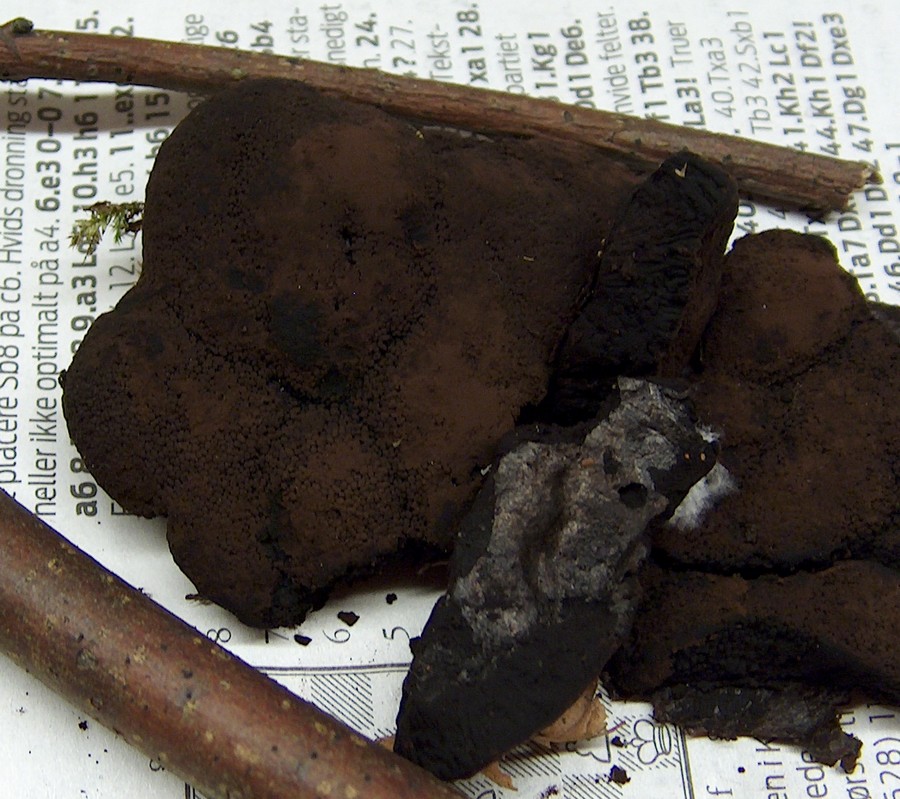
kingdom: Protozoa
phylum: Mycetozoa
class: Myxomycetes
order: Stemonitidales
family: Stemonitidaceae
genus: Brefeldia
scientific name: Brefeldia maxima
